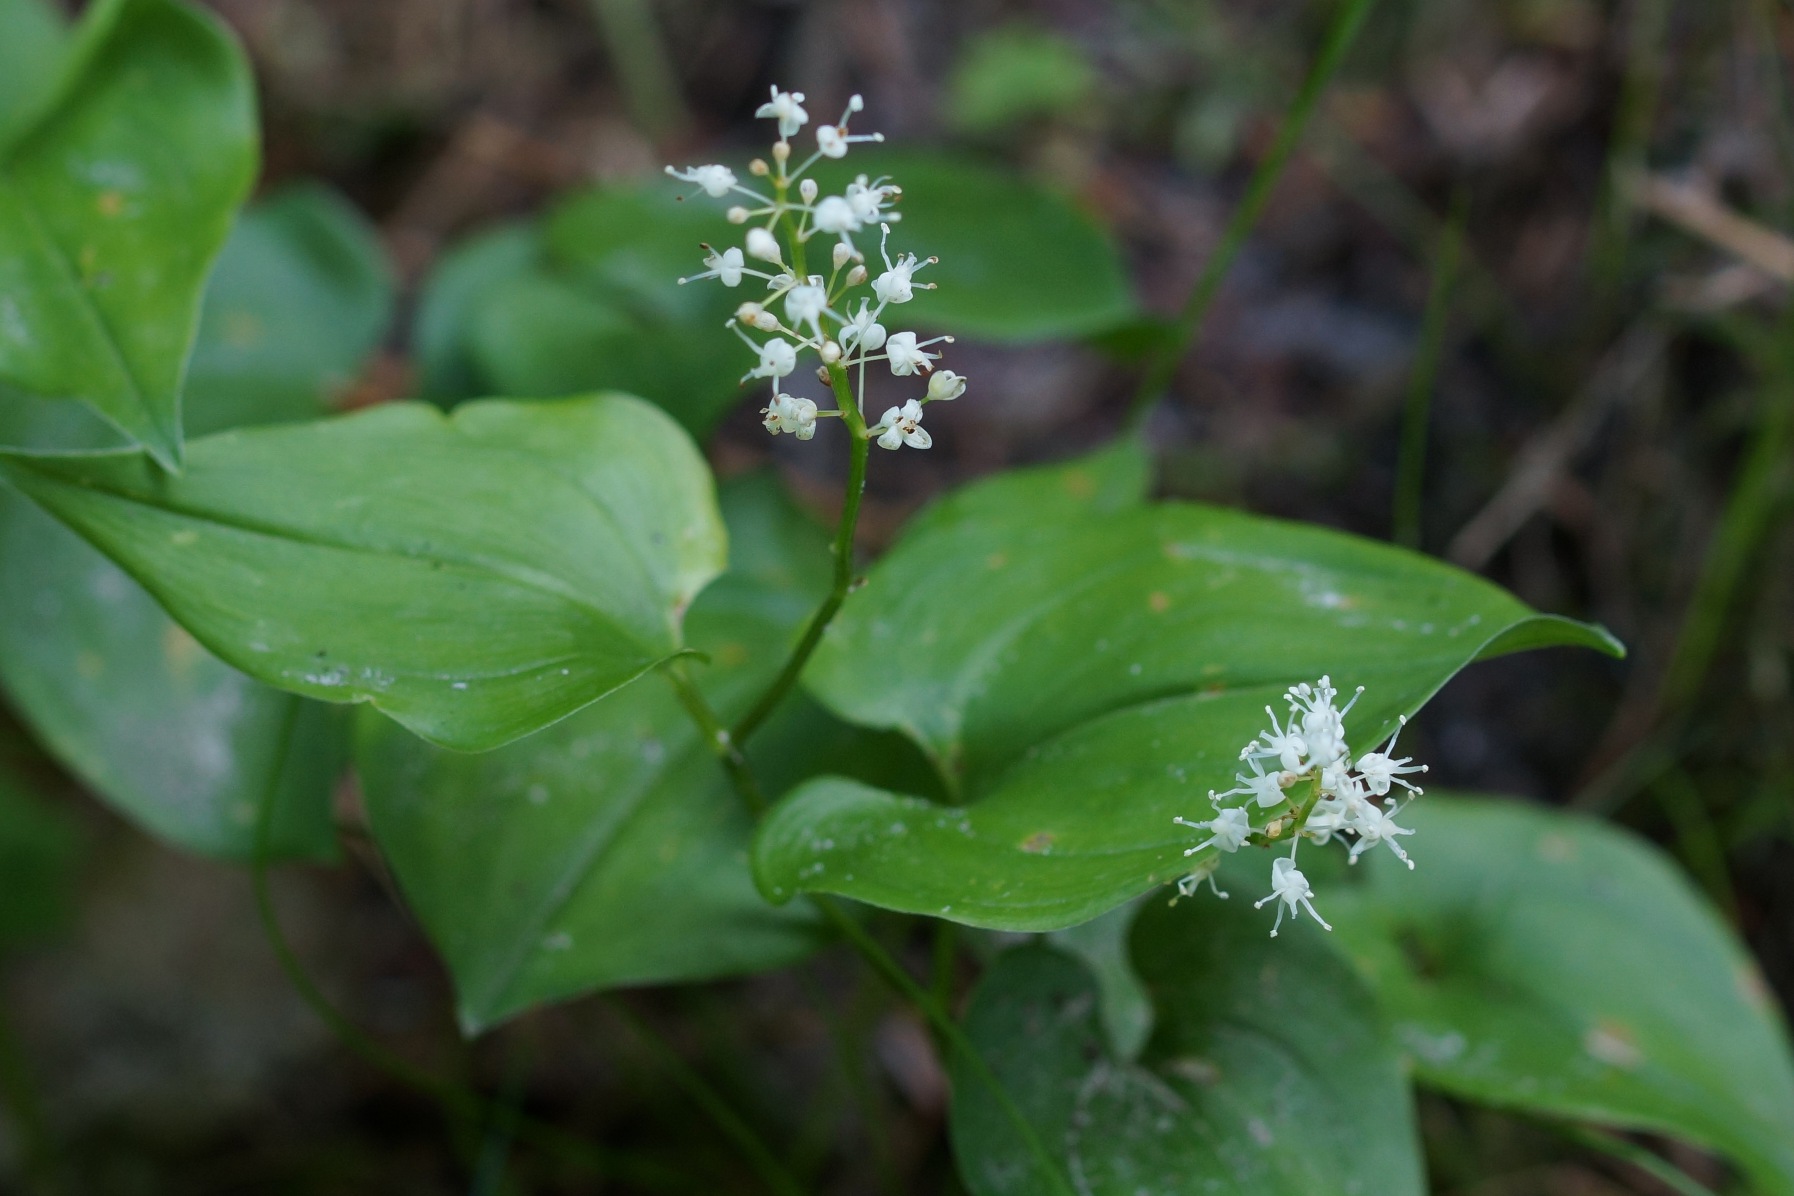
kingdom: Plantae
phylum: Tracheophyta
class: Liliopsida
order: Asparagales
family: Asparagaceae
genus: Maianthemum
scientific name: Maianthemum bifolium
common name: Majblomst
